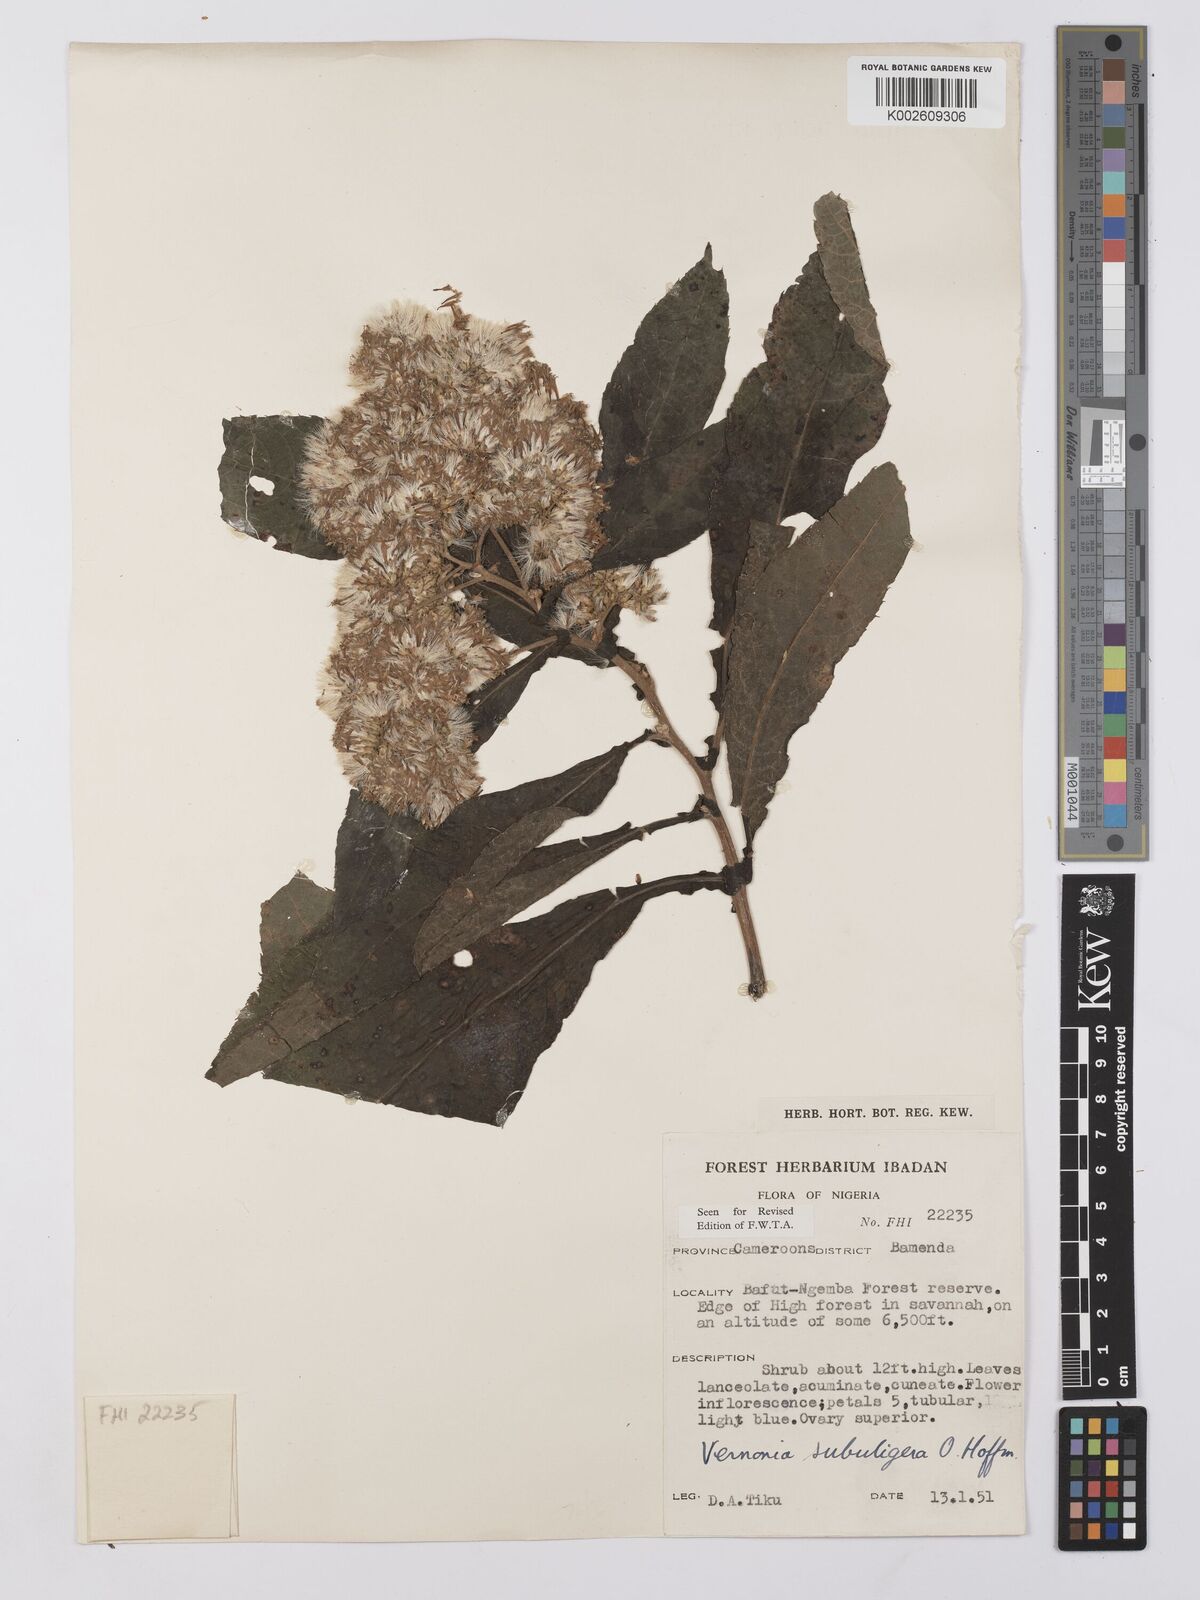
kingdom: Plantae
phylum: Tracheophyta
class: Magnoliopsida
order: Asterales
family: Asteraceae
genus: Gymnanthemum
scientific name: Gymnanthemum myrianthum
